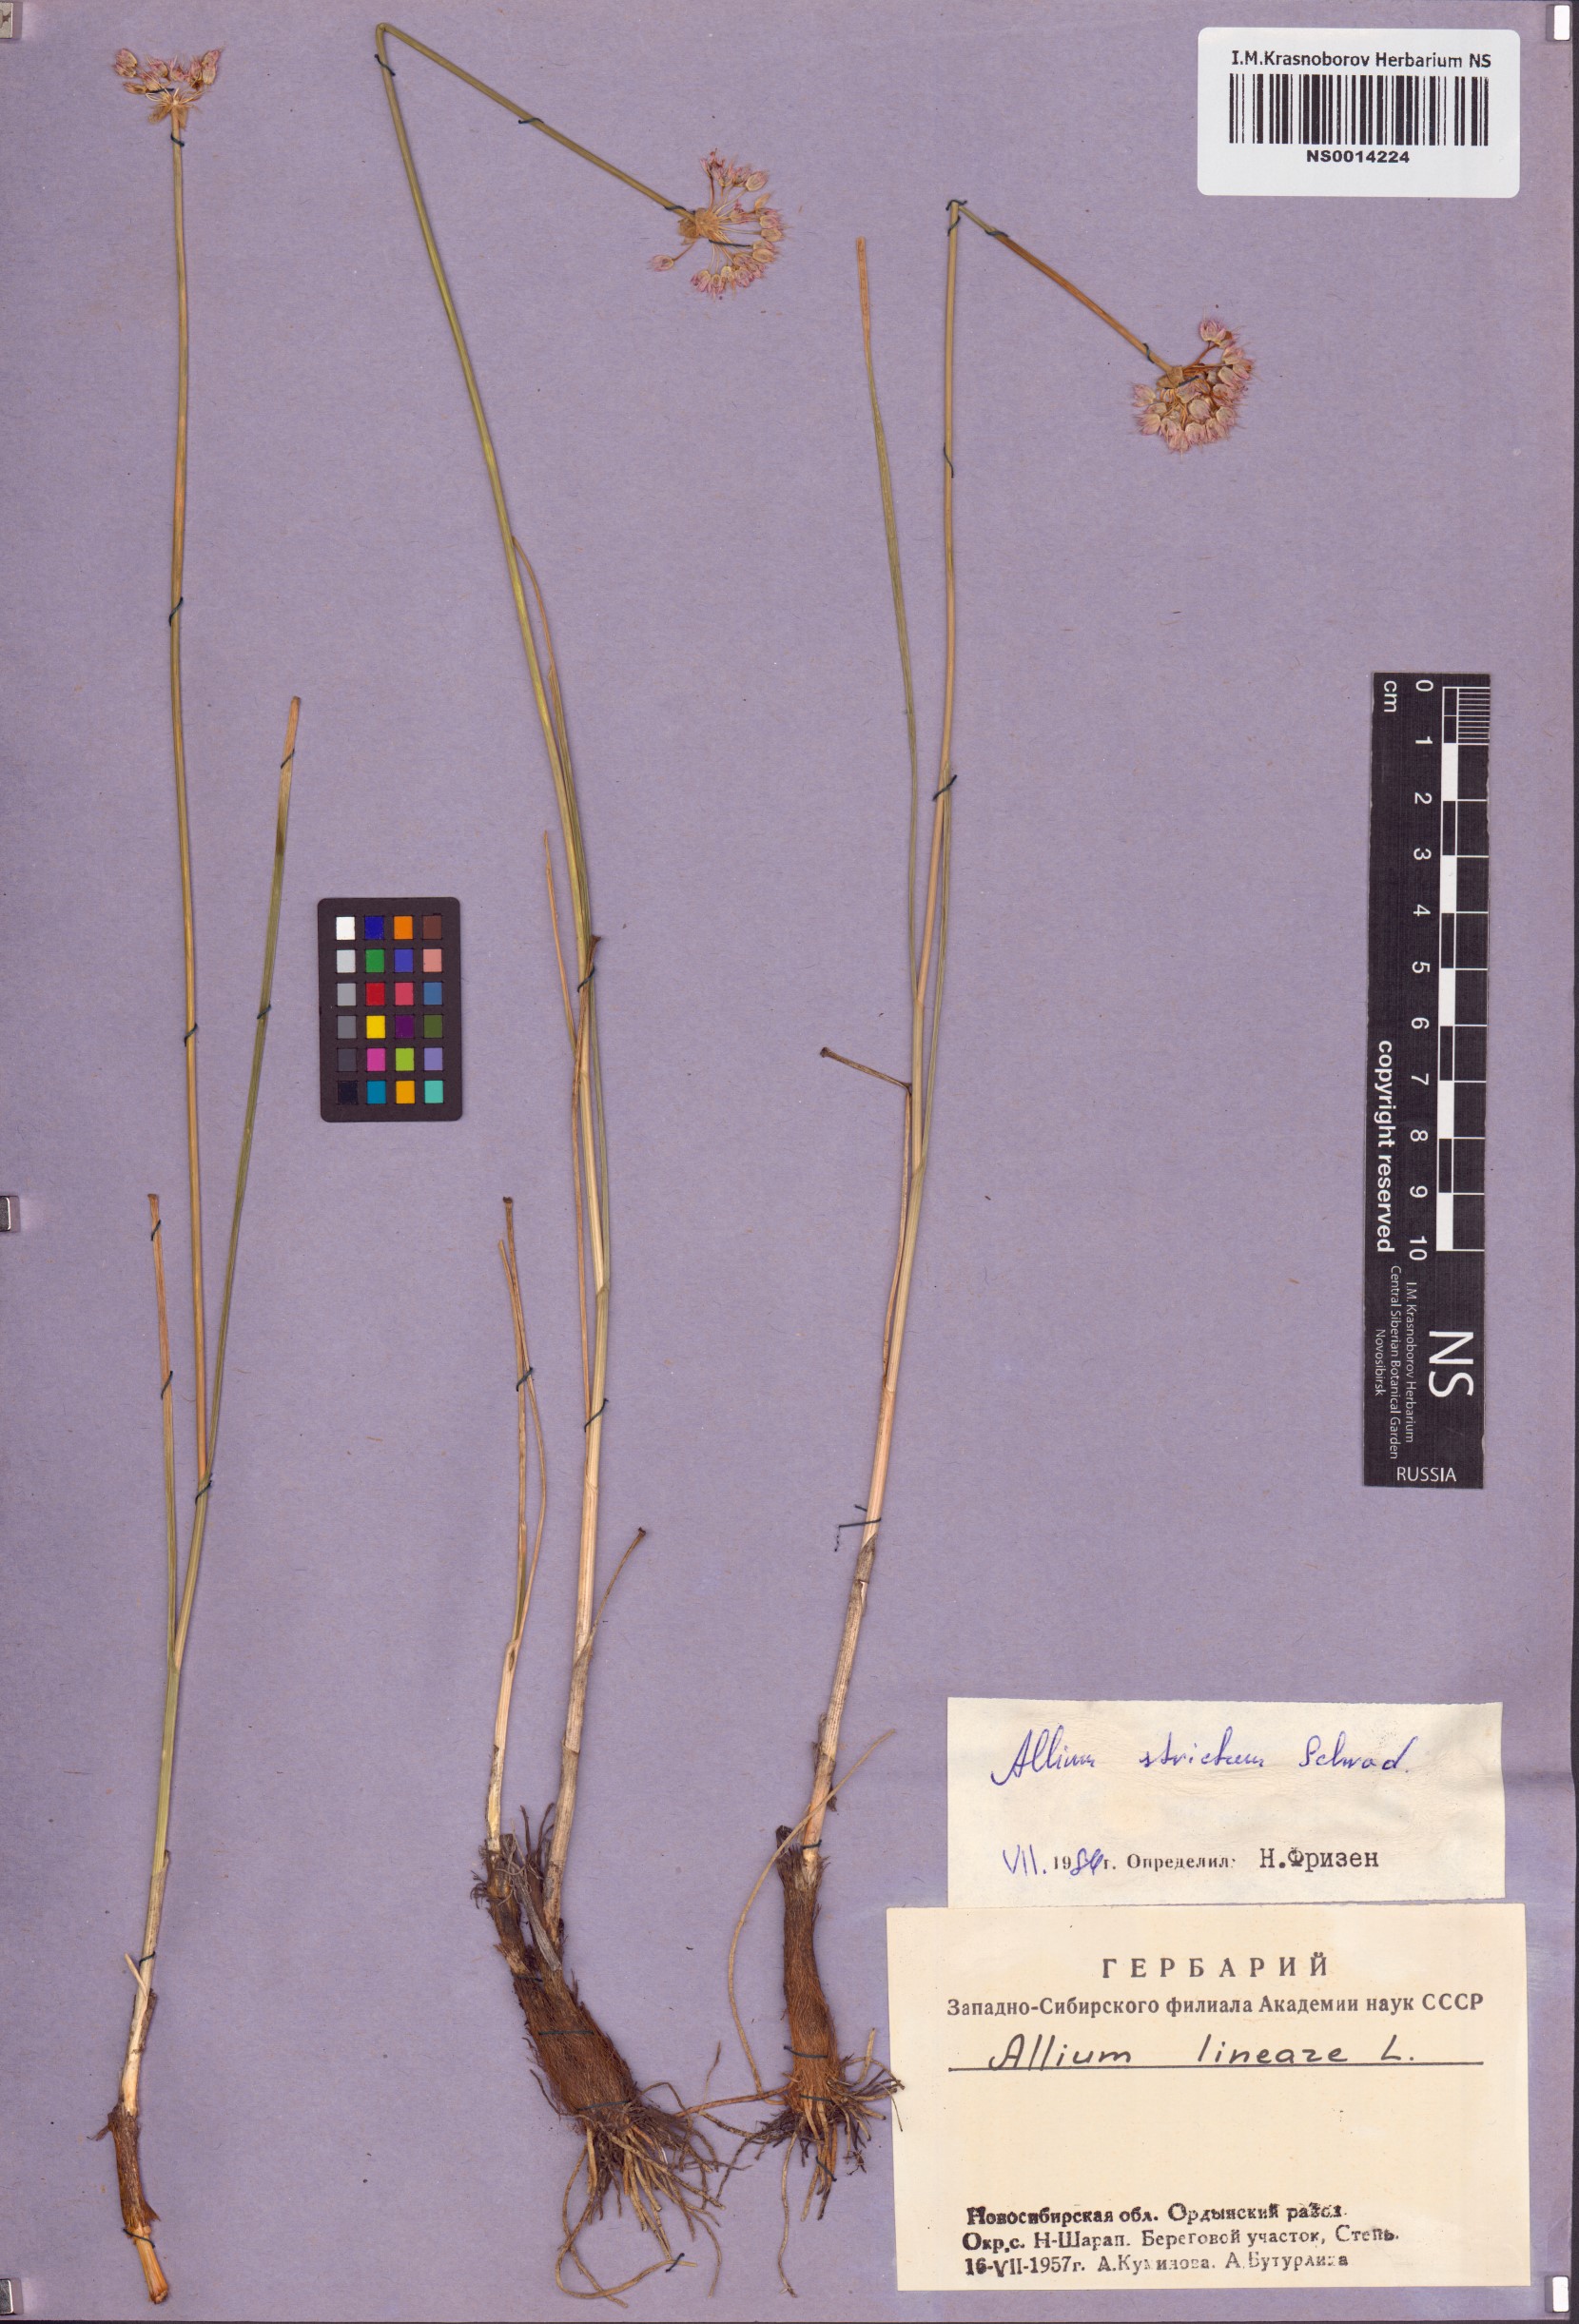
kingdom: Plantae
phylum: Tracheophyta
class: Liliopsida
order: Asparagales
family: Amaryllidaceae
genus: Allium
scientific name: Allium strictum
